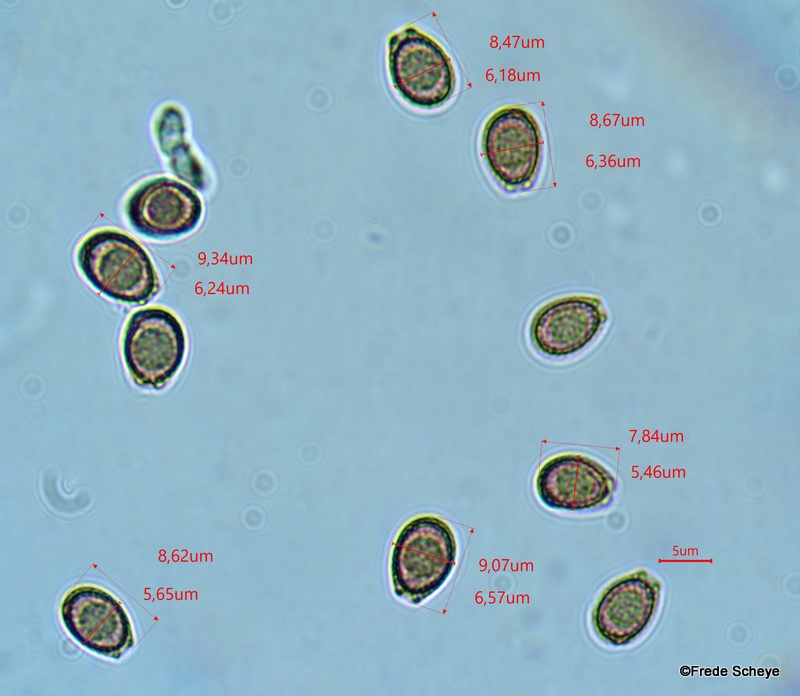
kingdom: Fungi
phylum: Basidiomycota
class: Agaricomycetes
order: Polyporales
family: Polyporaceae
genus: Ganoderma
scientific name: Ganoderma applanatum
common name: flad lakporesvamp
